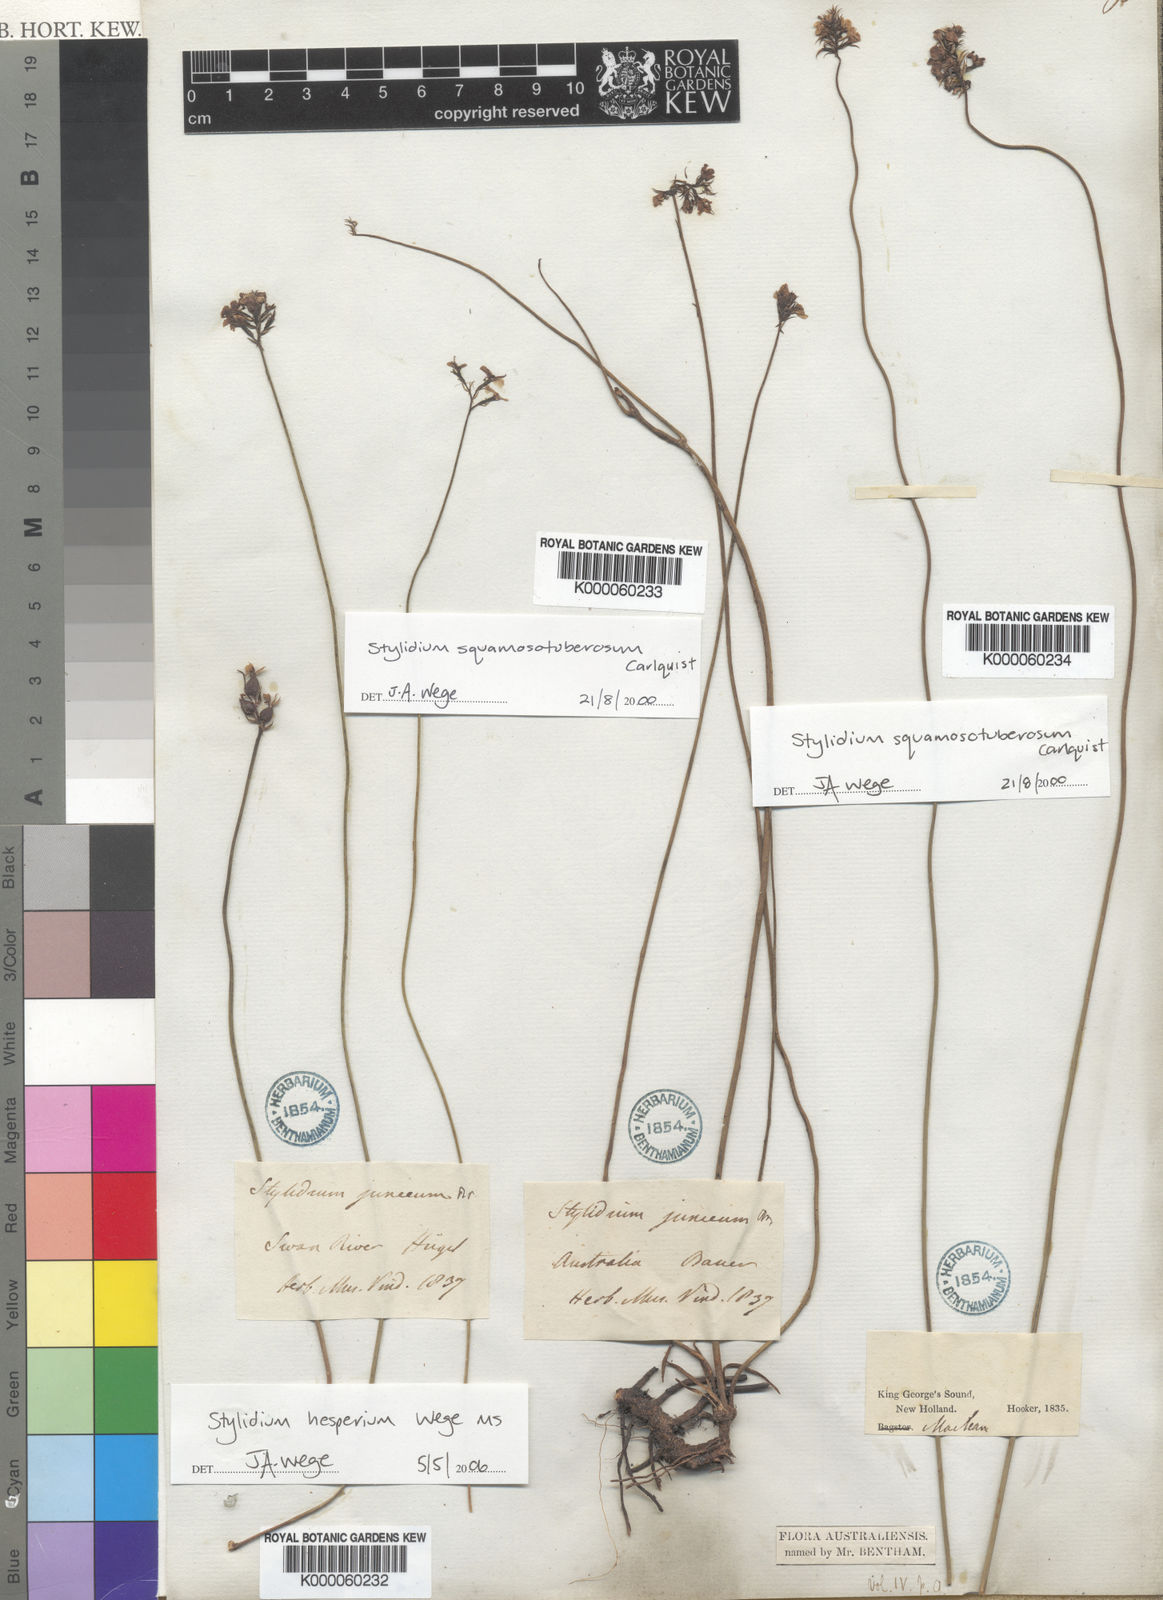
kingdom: Plantae
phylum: Tracheophyta
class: Magnoliopsida
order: Asterales
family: Stylidiaceae
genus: Stylidium
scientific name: Stylidium
